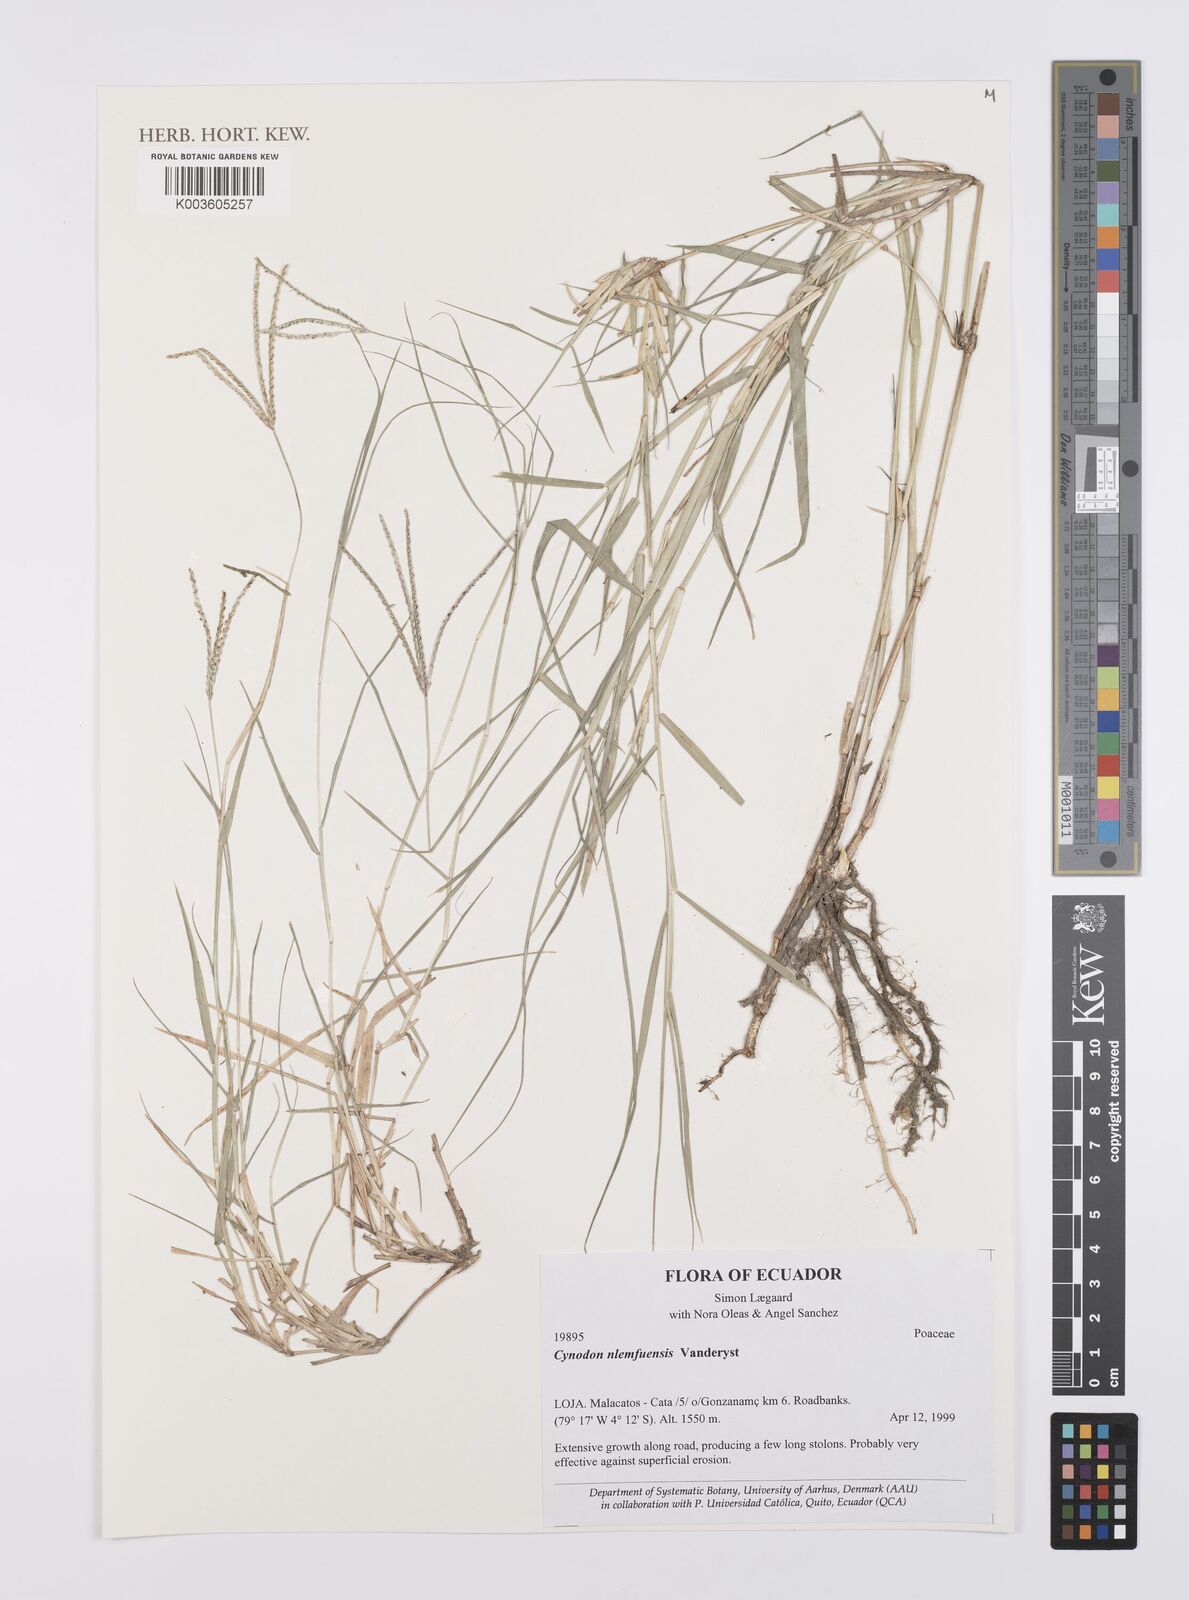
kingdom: Plantae
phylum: Tracheophyta
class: Liliopsida
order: Poales
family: Poaceae
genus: Cynodon
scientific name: Cynodon nlemfuensis
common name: African bermudagrass
